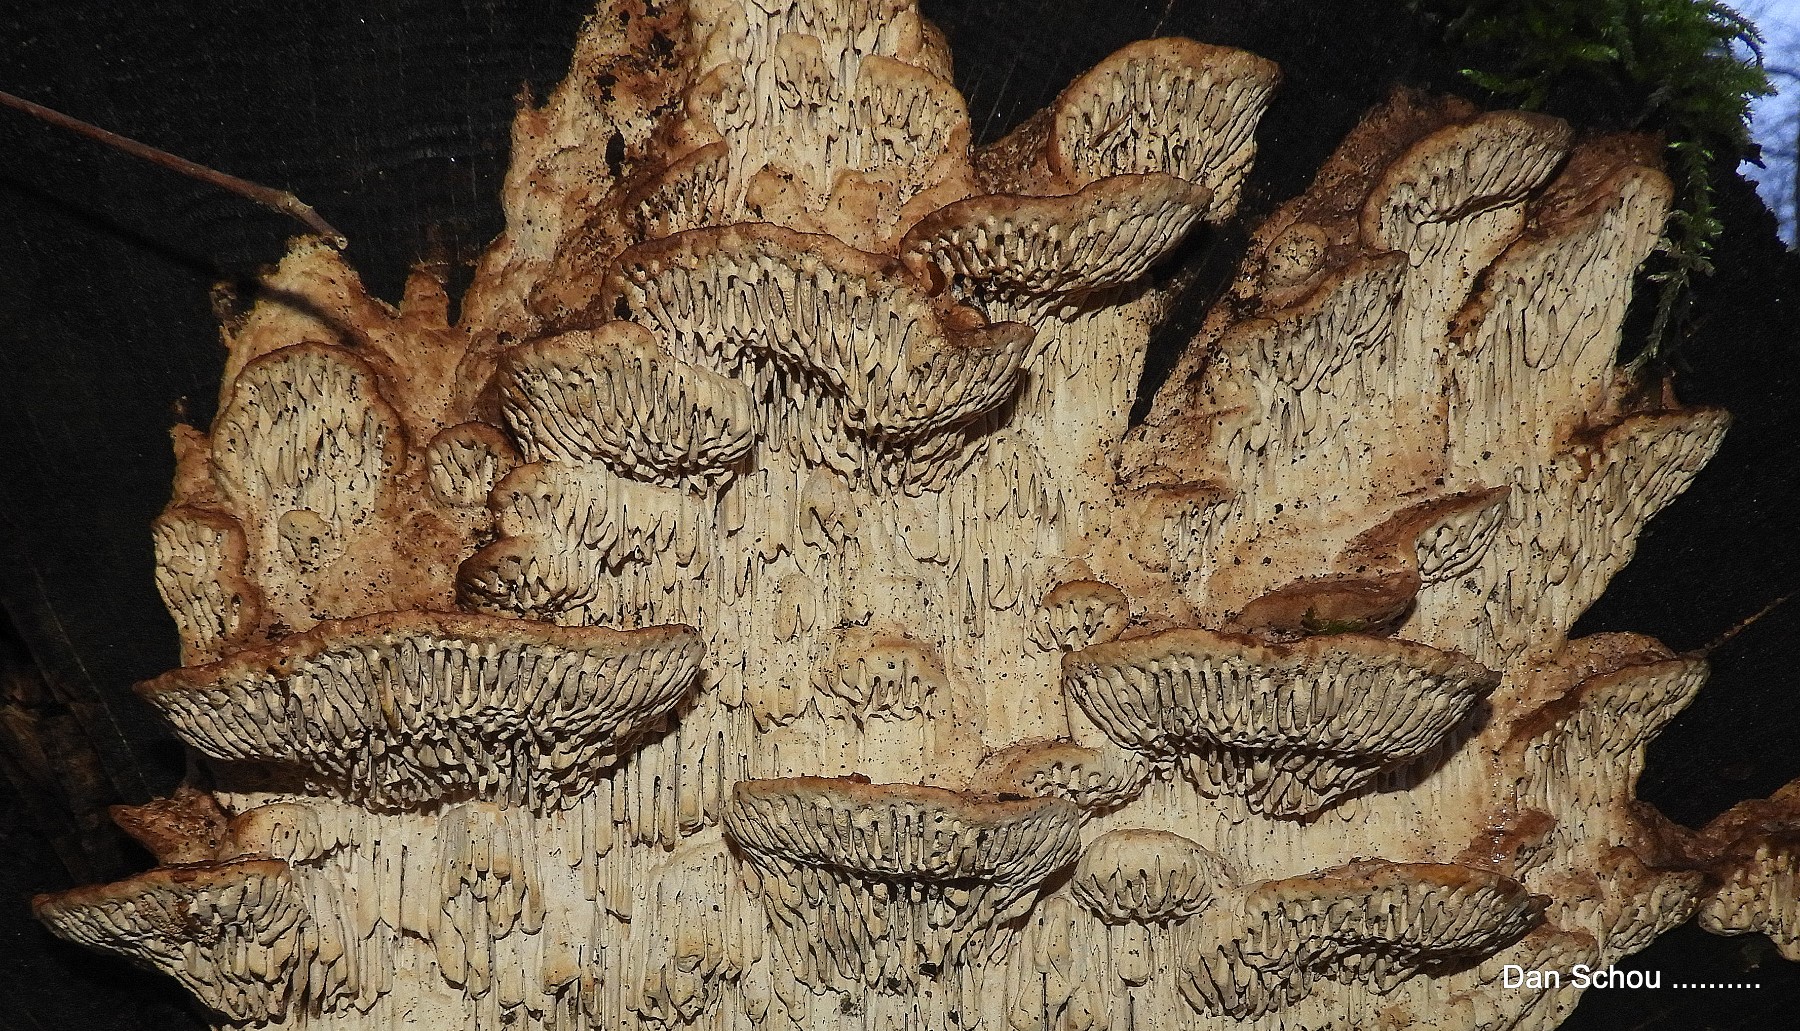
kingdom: Fungi
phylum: Basidiomycota
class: Agaricomycetes
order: Polyporales
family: Polyporaceae
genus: Daedaleopsis
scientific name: Daedaleopsis confragosa
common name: rødmende læderporesvamp
